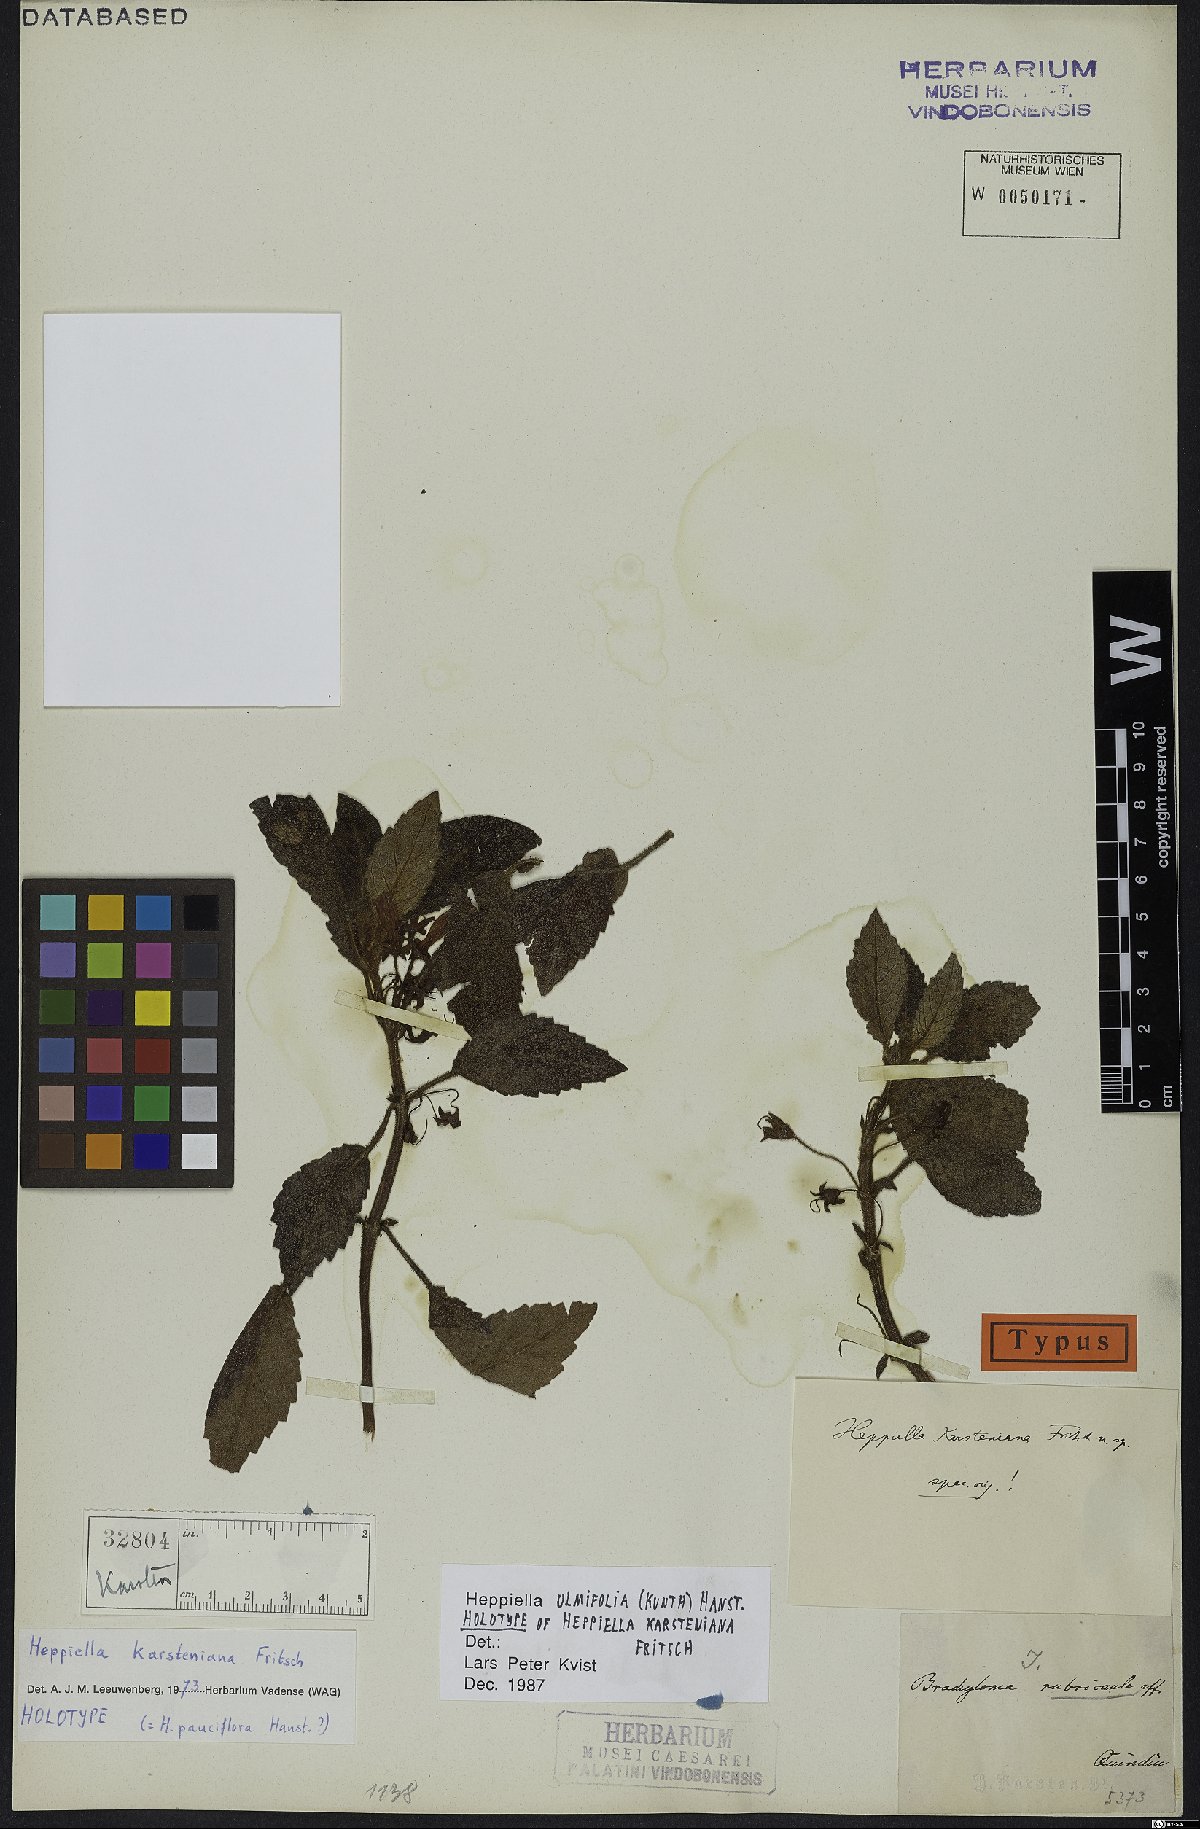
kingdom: Plantae
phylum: Tracheophyta
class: Magnoliopsida
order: Lamiales
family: Gesneriaceae
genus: Heppiella
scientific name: Heppiella ulmifolia
